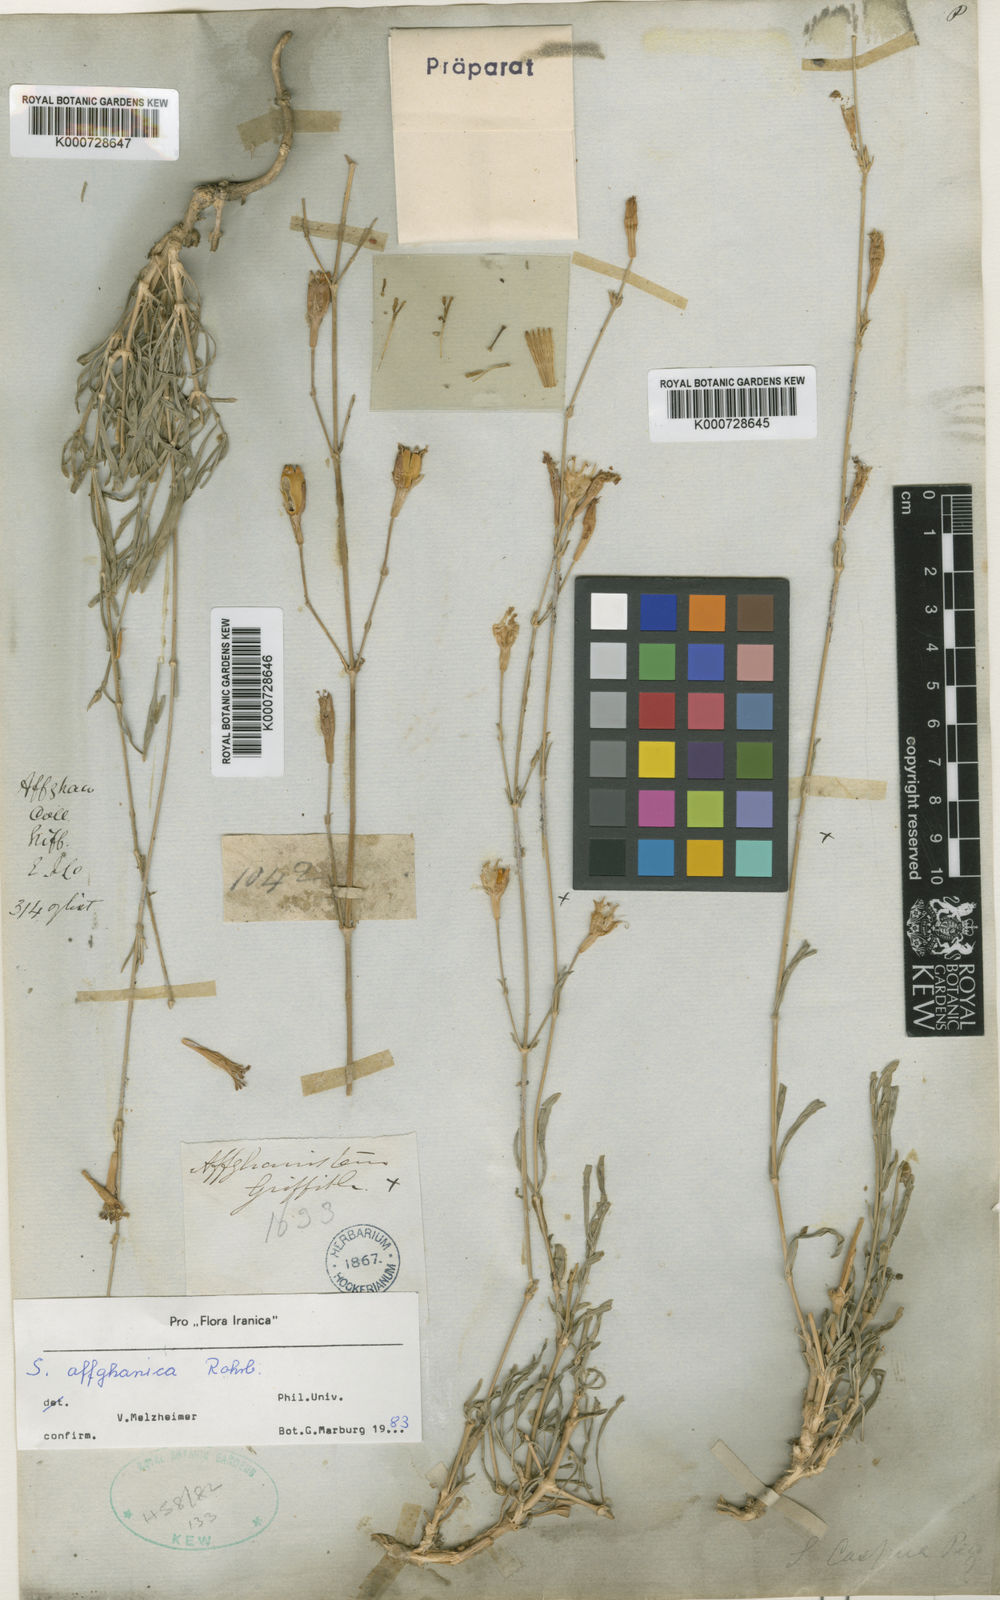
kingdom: Plantae
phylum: Tracheophyta
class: Magnoliopsida
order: Caryophyllales
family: Caryophyllaceae
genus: Silene
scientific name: Silene affghanica
